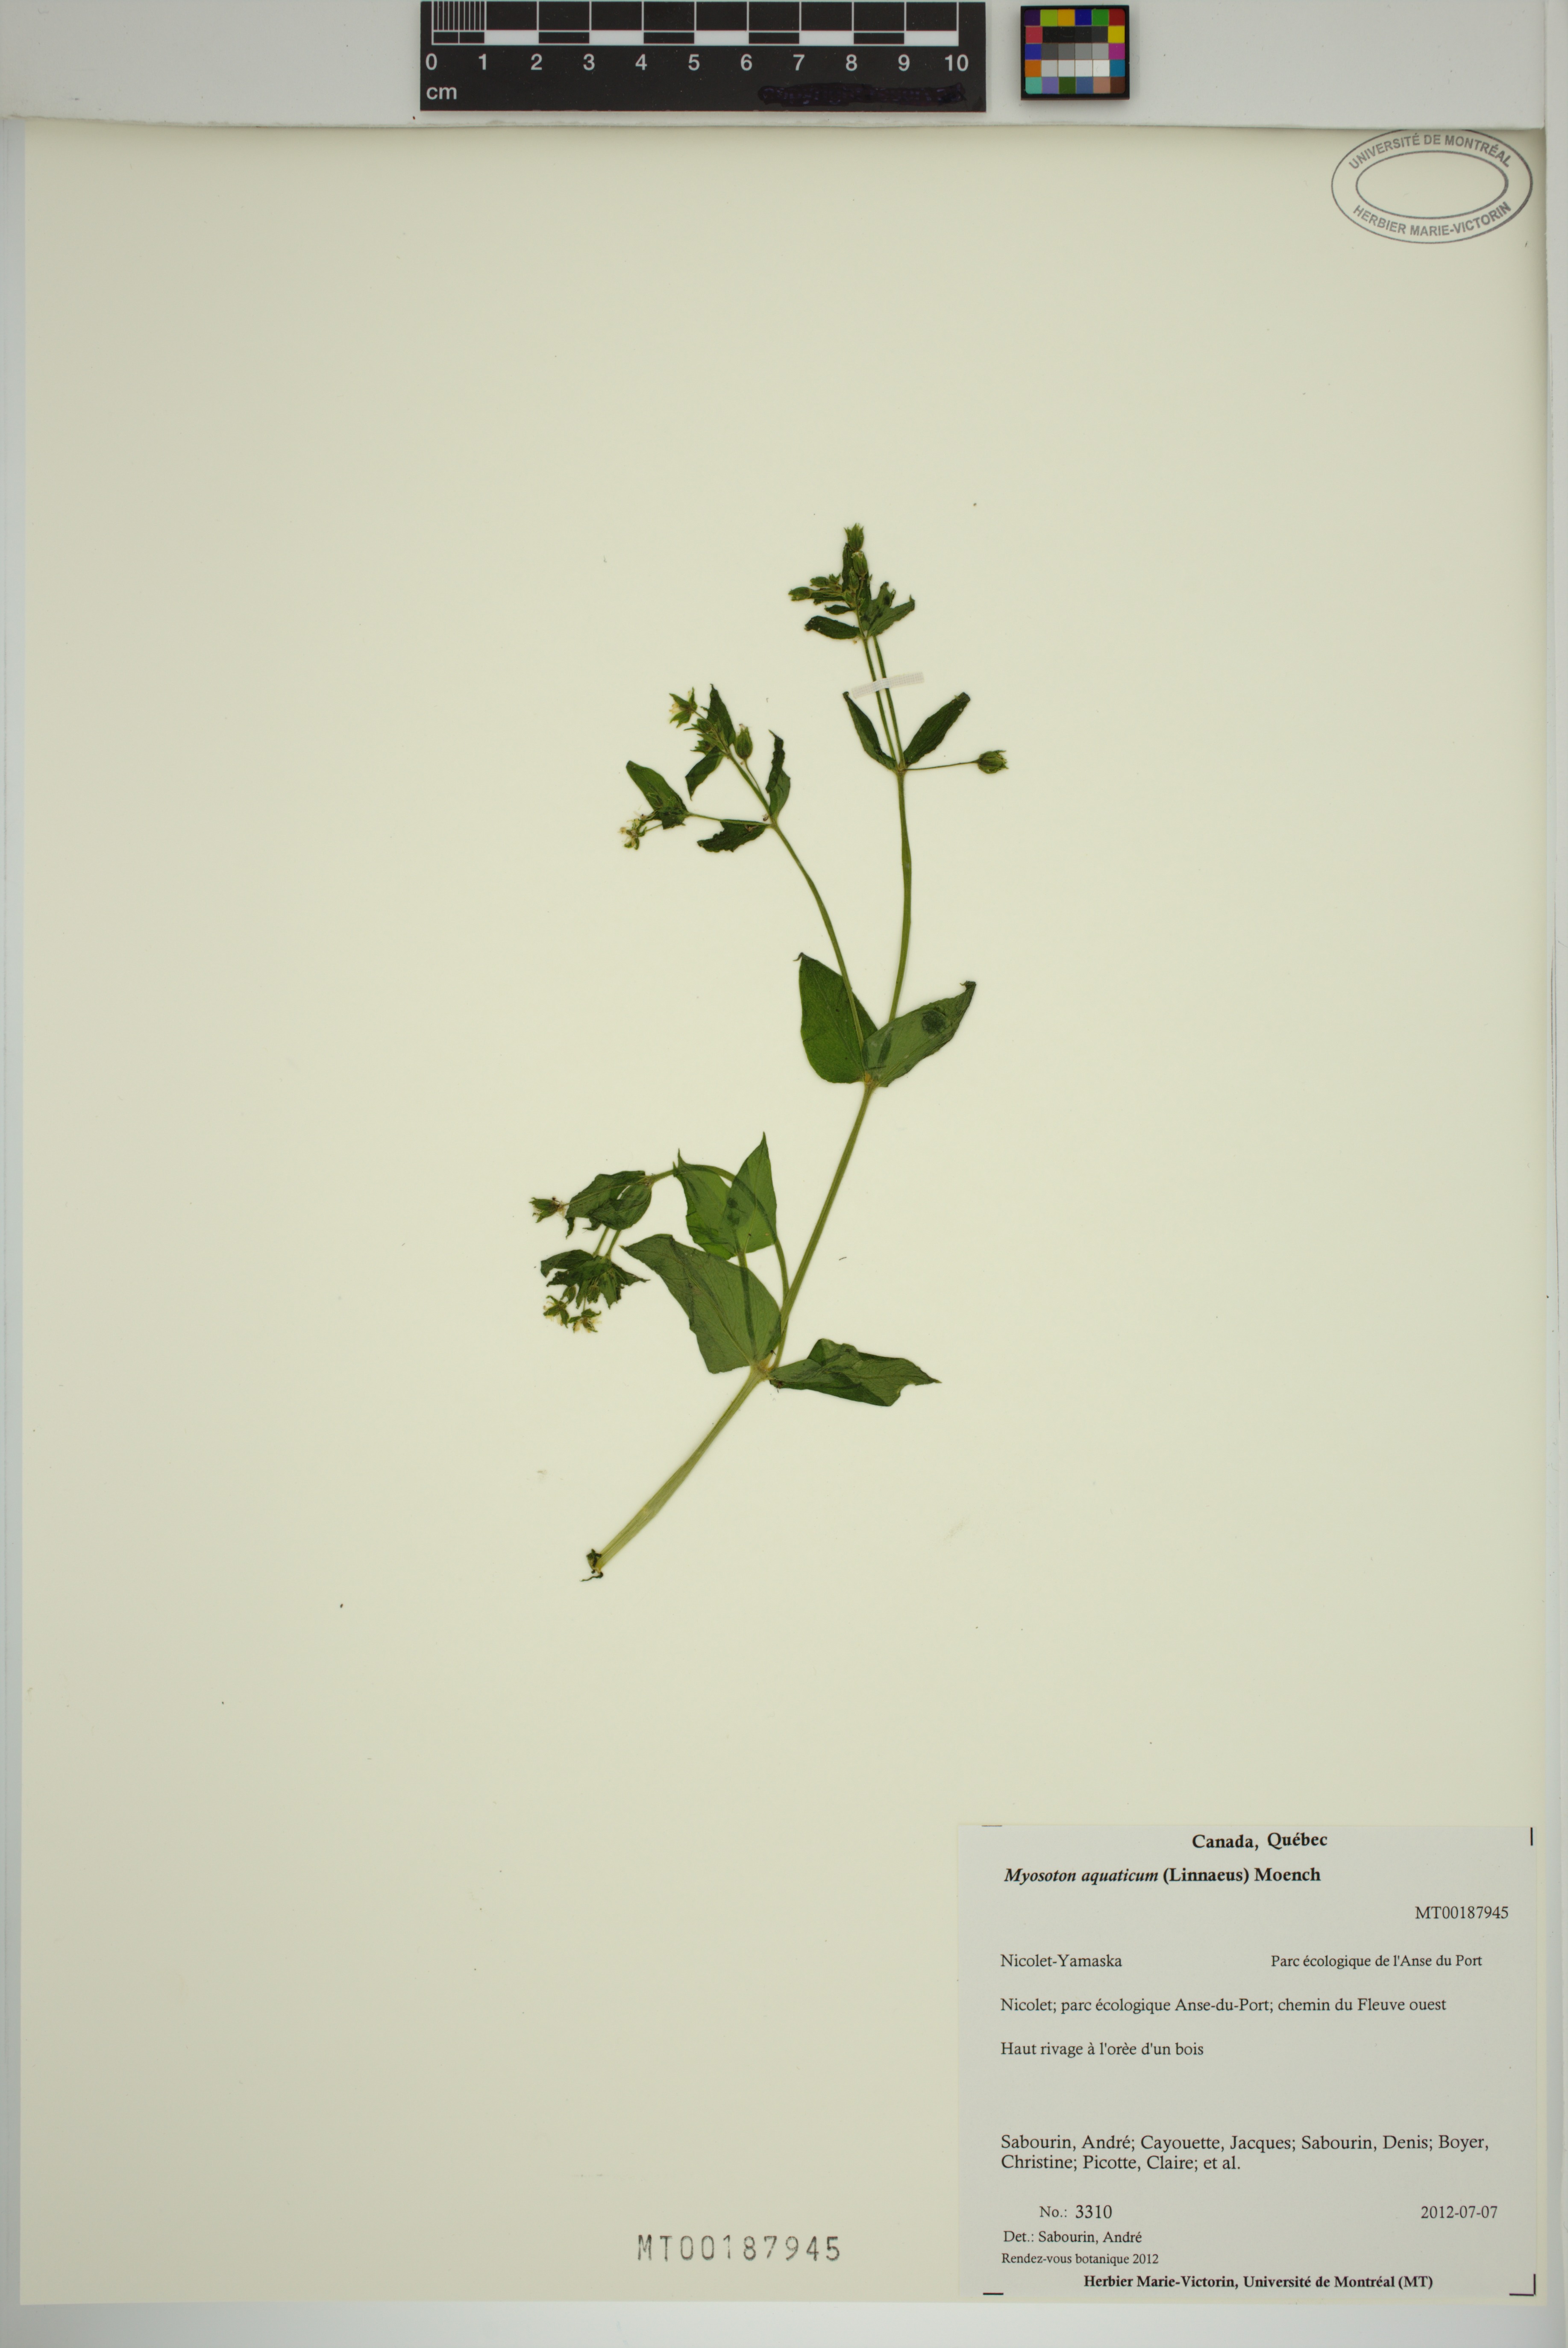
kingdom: Plantae
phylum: Tracheophyta
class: Magnoliopsida
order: Caryophyllales
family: Caryophyllaceae
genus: Stellaria
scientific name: Stellaria aquatica
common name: Water chickweed
